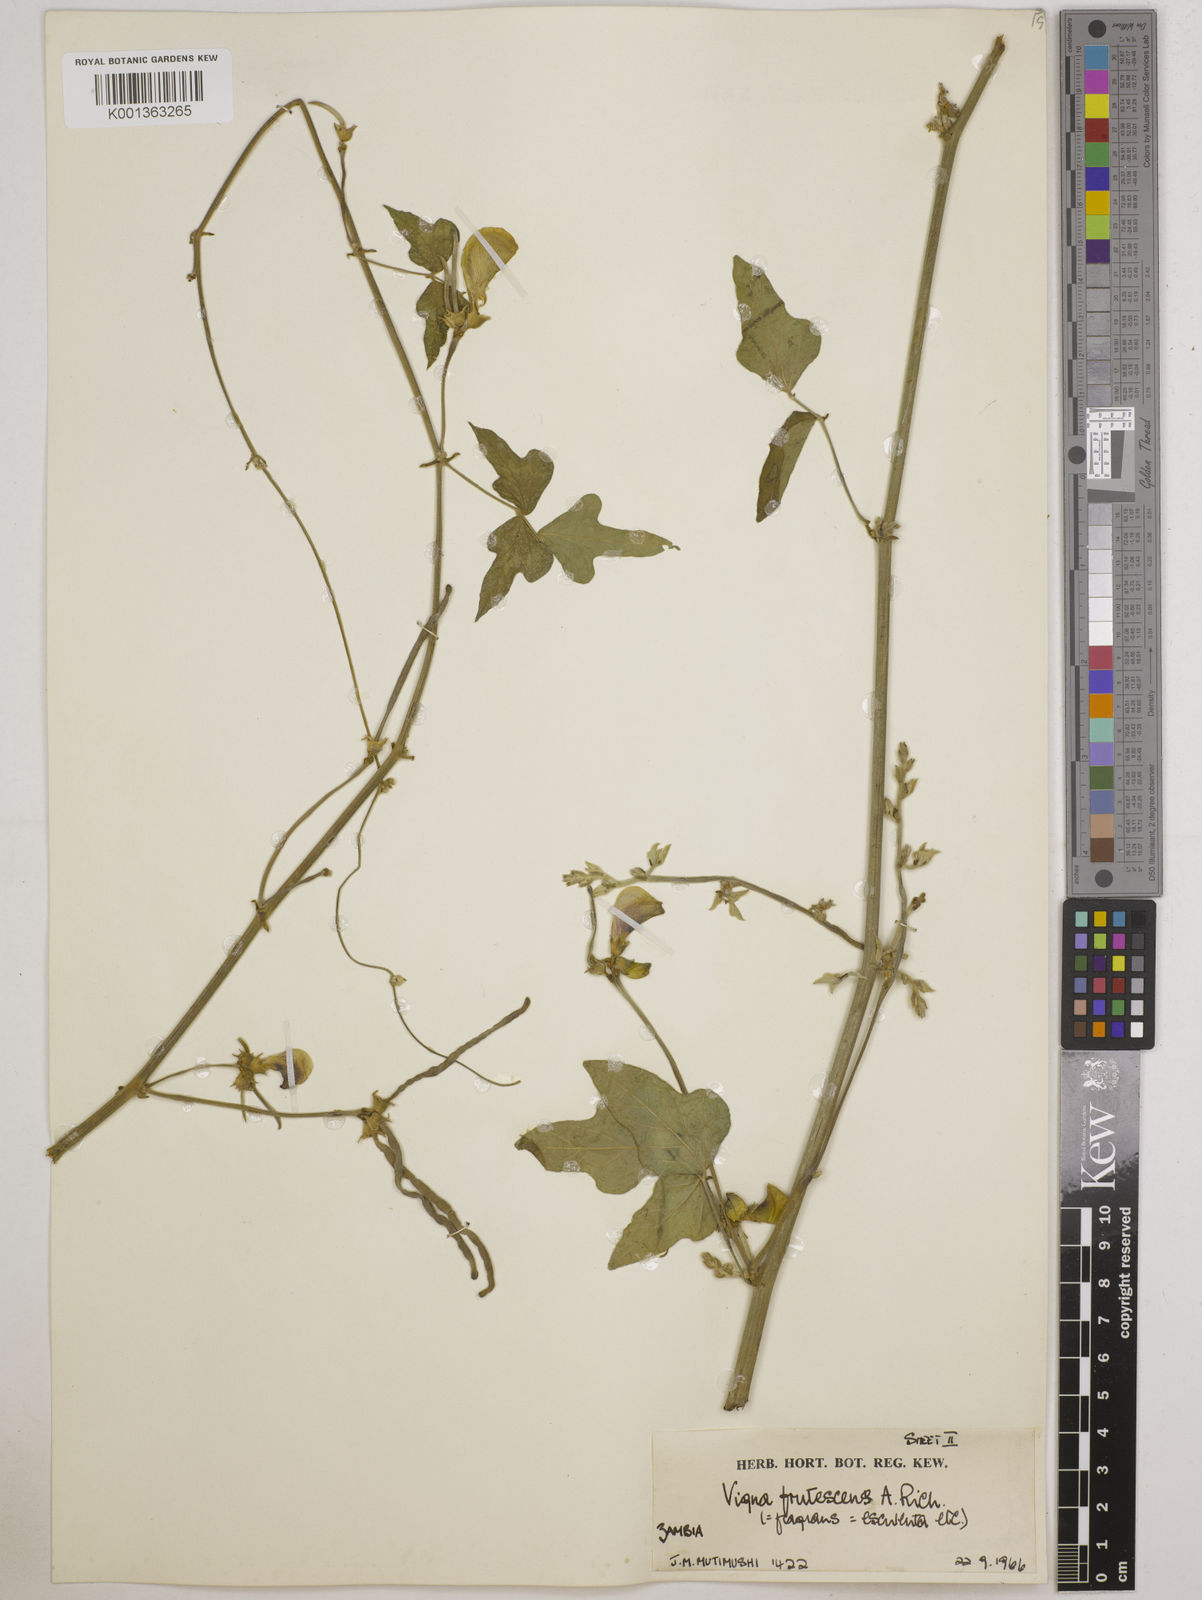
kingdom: Plantae
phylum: Tracheophyta
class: Magnoliopsida
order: Fabales
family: Fabaceae
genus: Vigna
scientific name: Vigna
